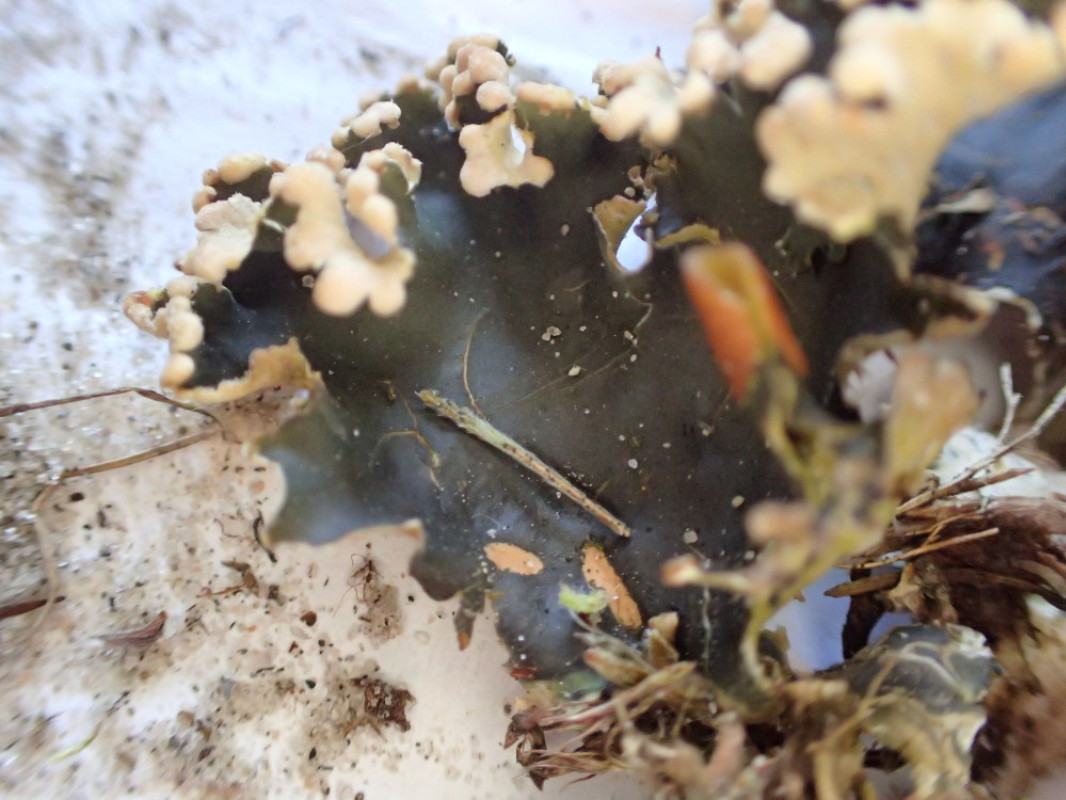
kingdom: Fungi
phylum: Ascomycota
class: Lecanoromycetes
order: Peltigerales
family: Peltigeraceae
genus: Peltigera
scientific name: Peltigera hymenina
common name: hinde-skjoldlav
